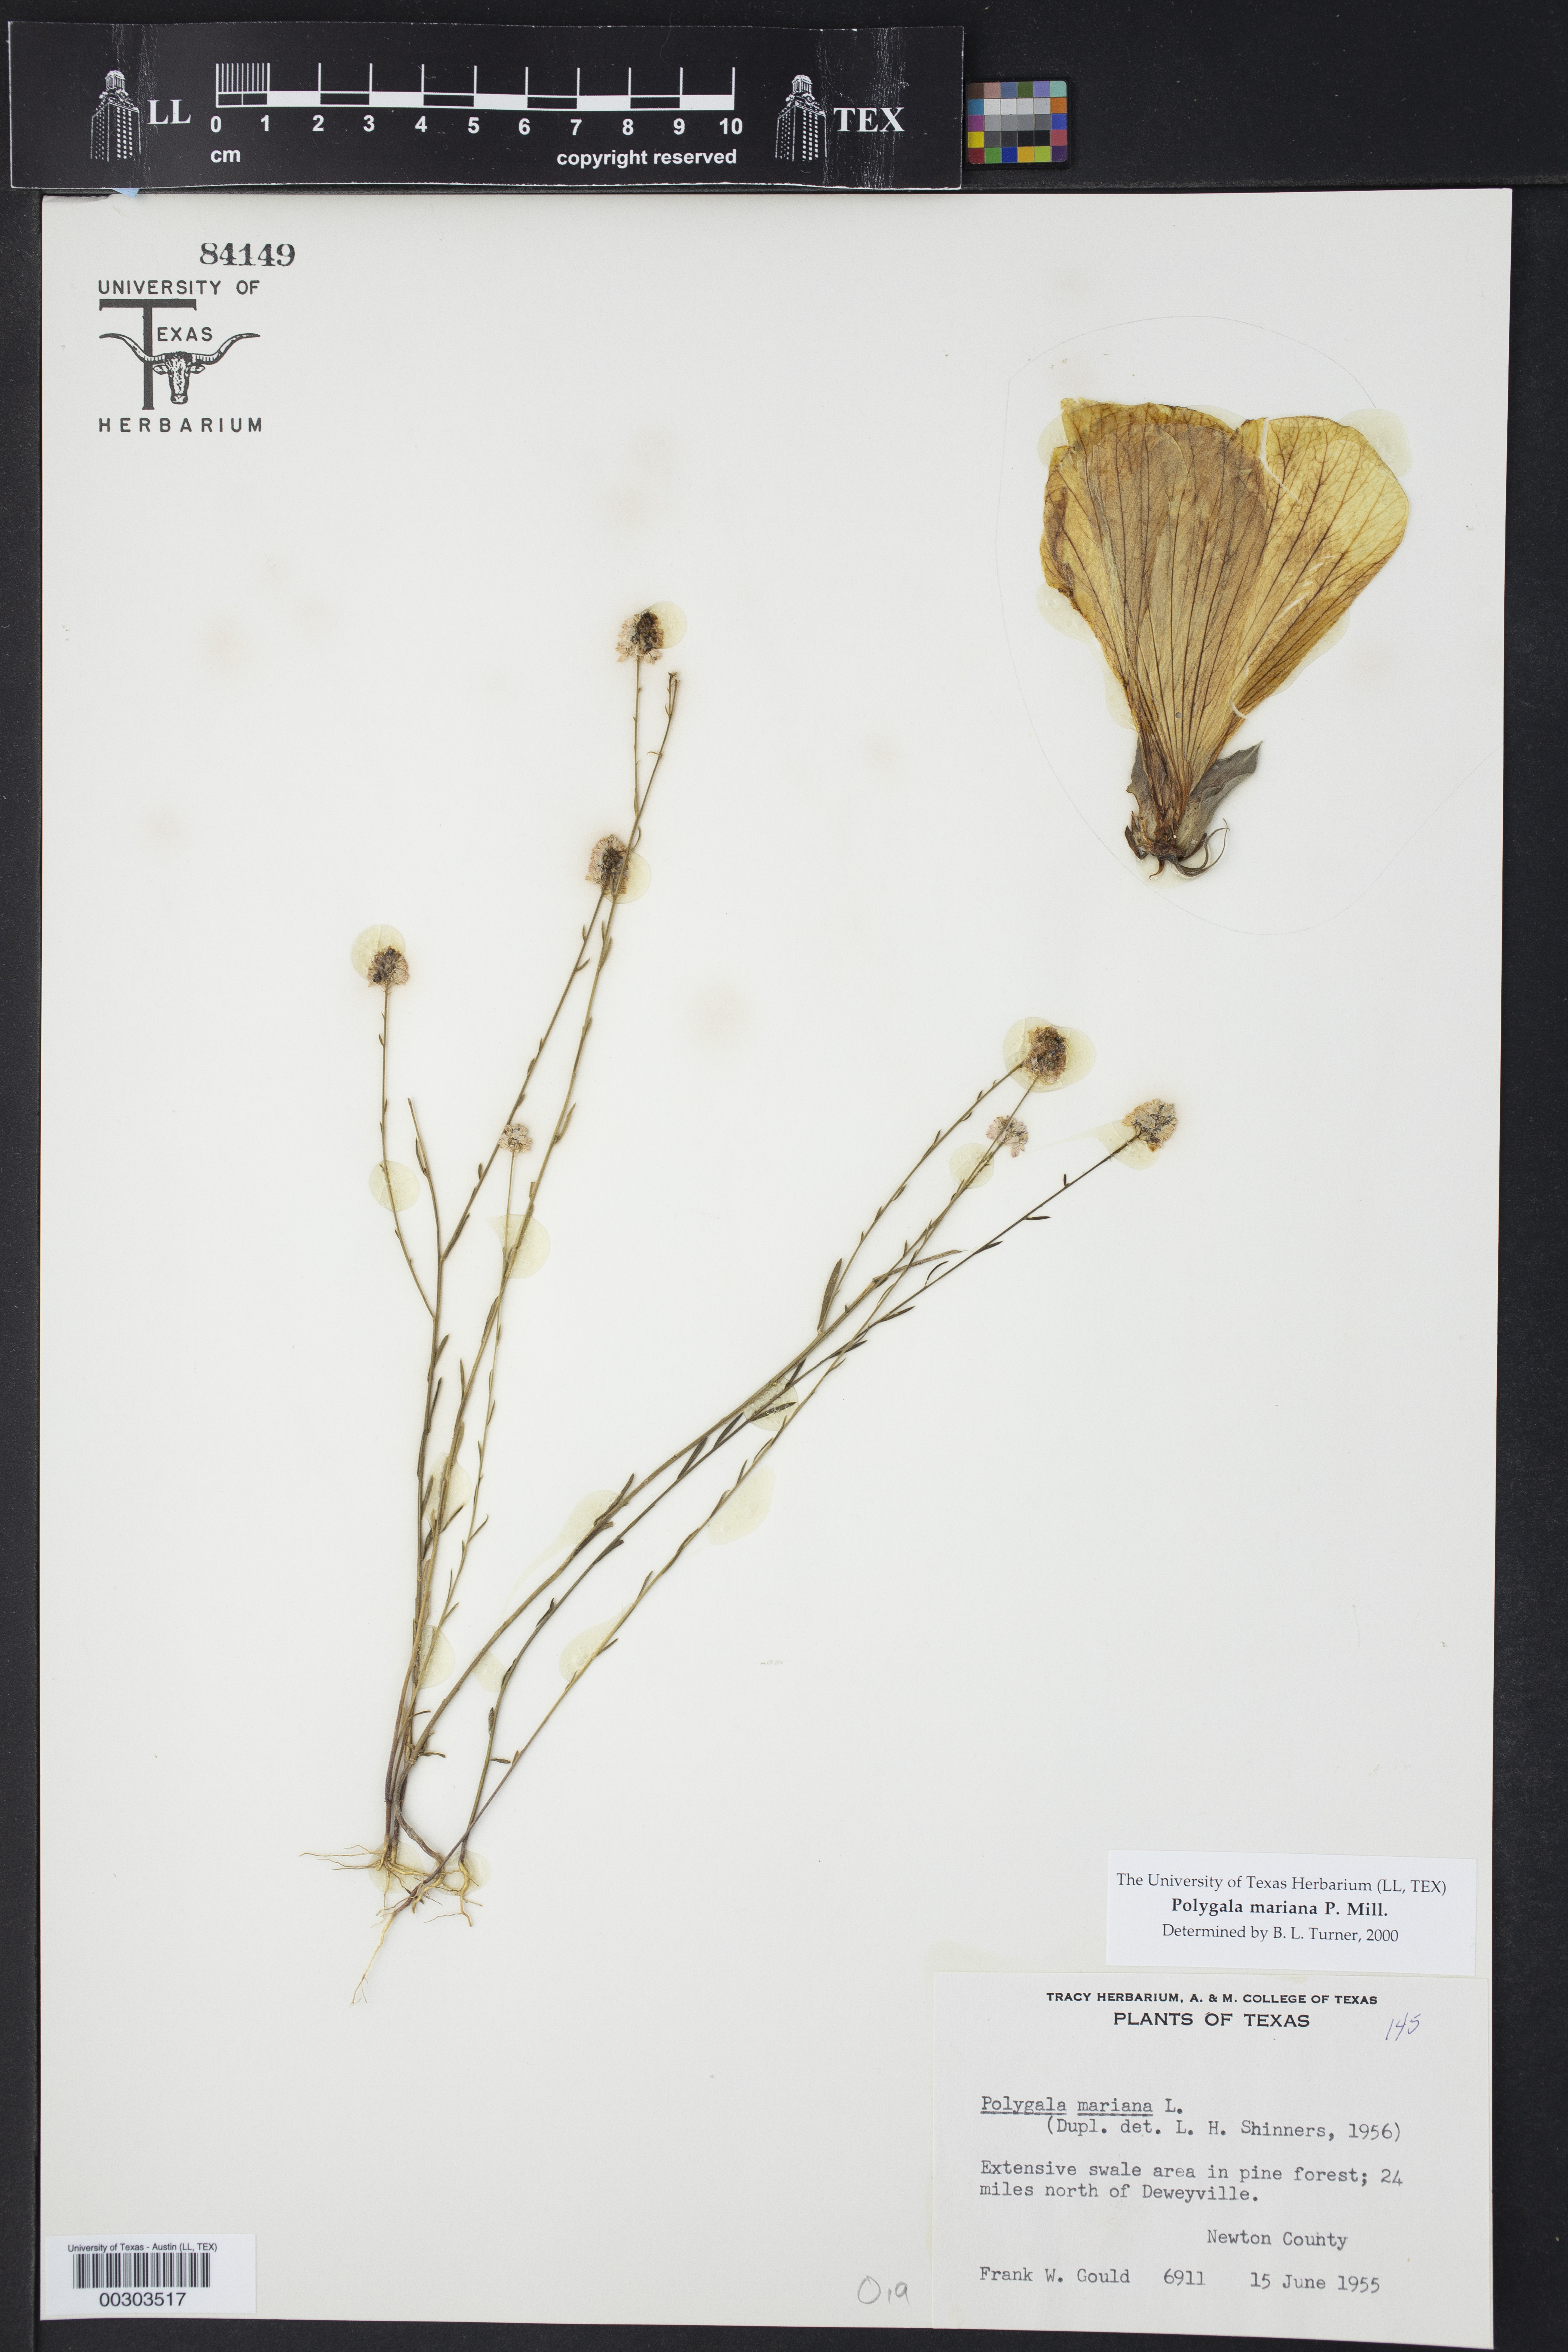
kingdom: Plantae
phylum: Tracheophyta
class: Magnoliopsida
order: Fabales
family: Polygalaceae
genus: Polygala
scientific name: Polygala mariana
